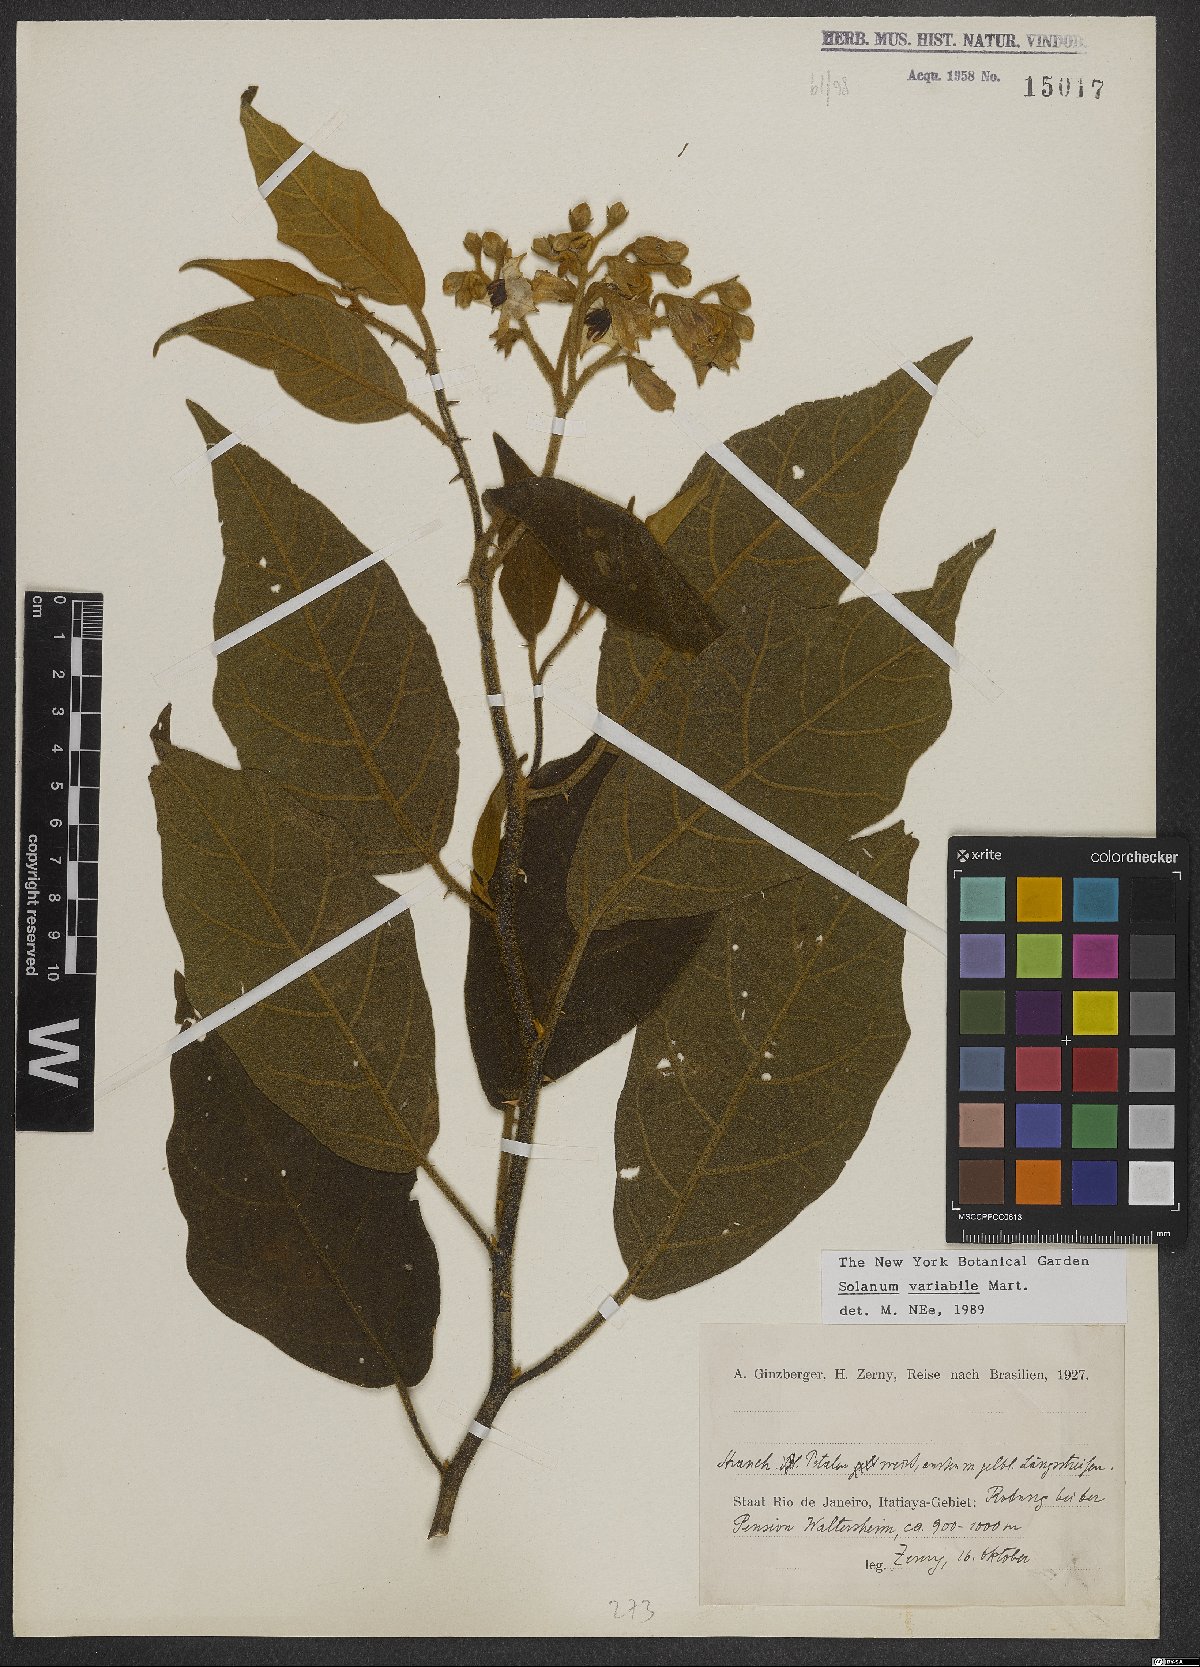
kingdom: Plantae
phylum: Tracheophyta
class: Magnoliopsida
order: Solanales
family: Solanaceae
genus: Solanum
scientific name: Solanum variabile
